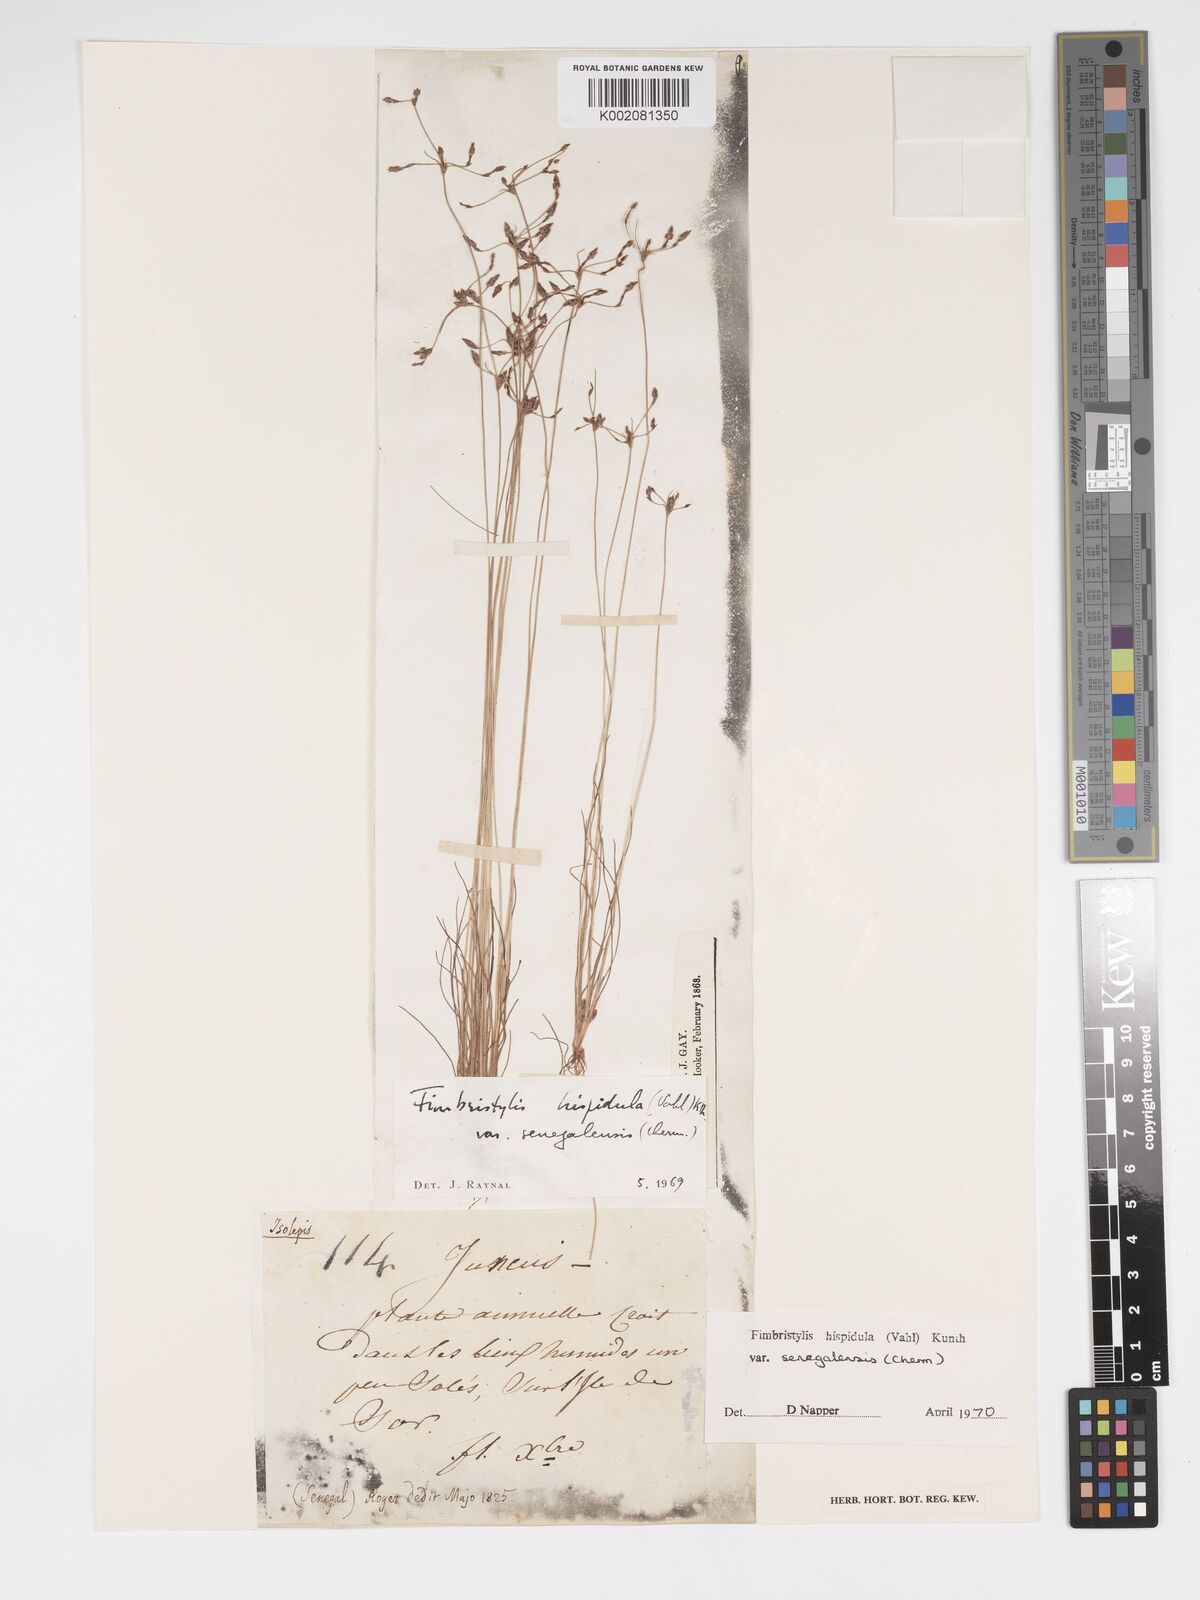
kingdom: Plantae
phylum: Tracheophyta
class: Liliopsida
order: Poales
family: Cyperaceae
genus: Bulbostylis
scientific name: Bulbostylis hispidula
